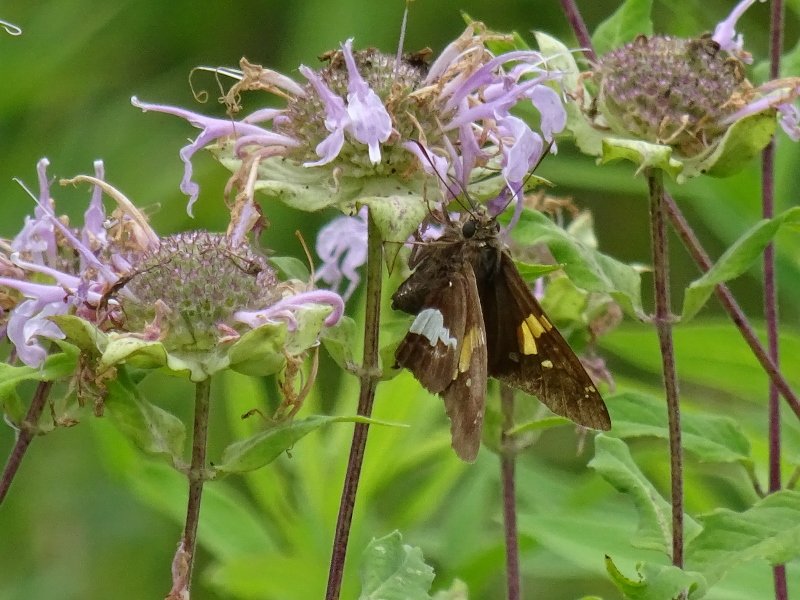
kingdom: Animalia
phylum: Arthropoda
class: Insecta
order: Lepidoptera
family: Hesperiidae
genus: Epargyreus
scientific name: Epargyreus clarus
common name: Silver-spotted Skipper
